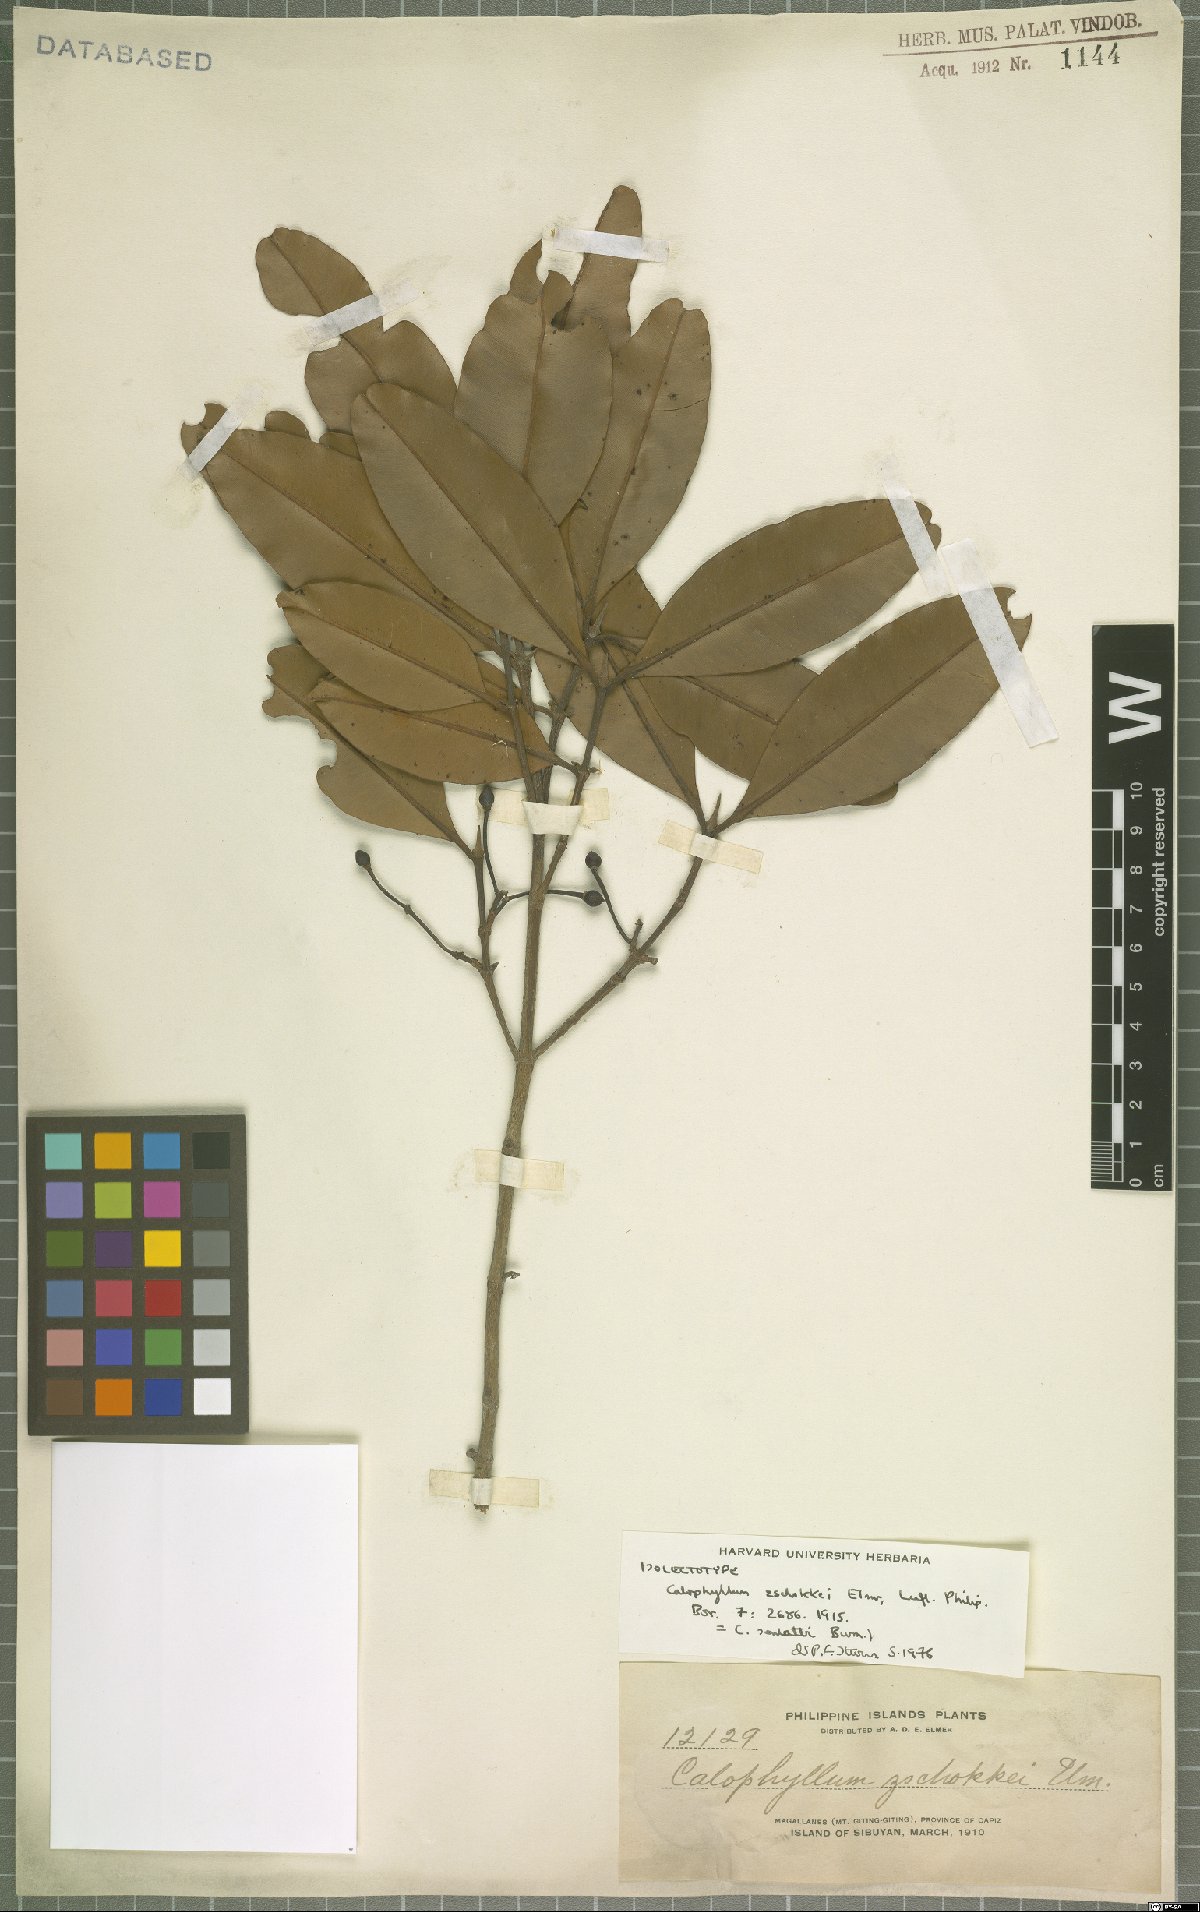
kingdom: Plantae
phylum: Tracheophyta
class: Magnoliopsida
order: Malpighiales
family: Calophyllaceae
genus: Calophyllum
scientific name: Calophyllum soulattri
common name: Bitangoor boonot
